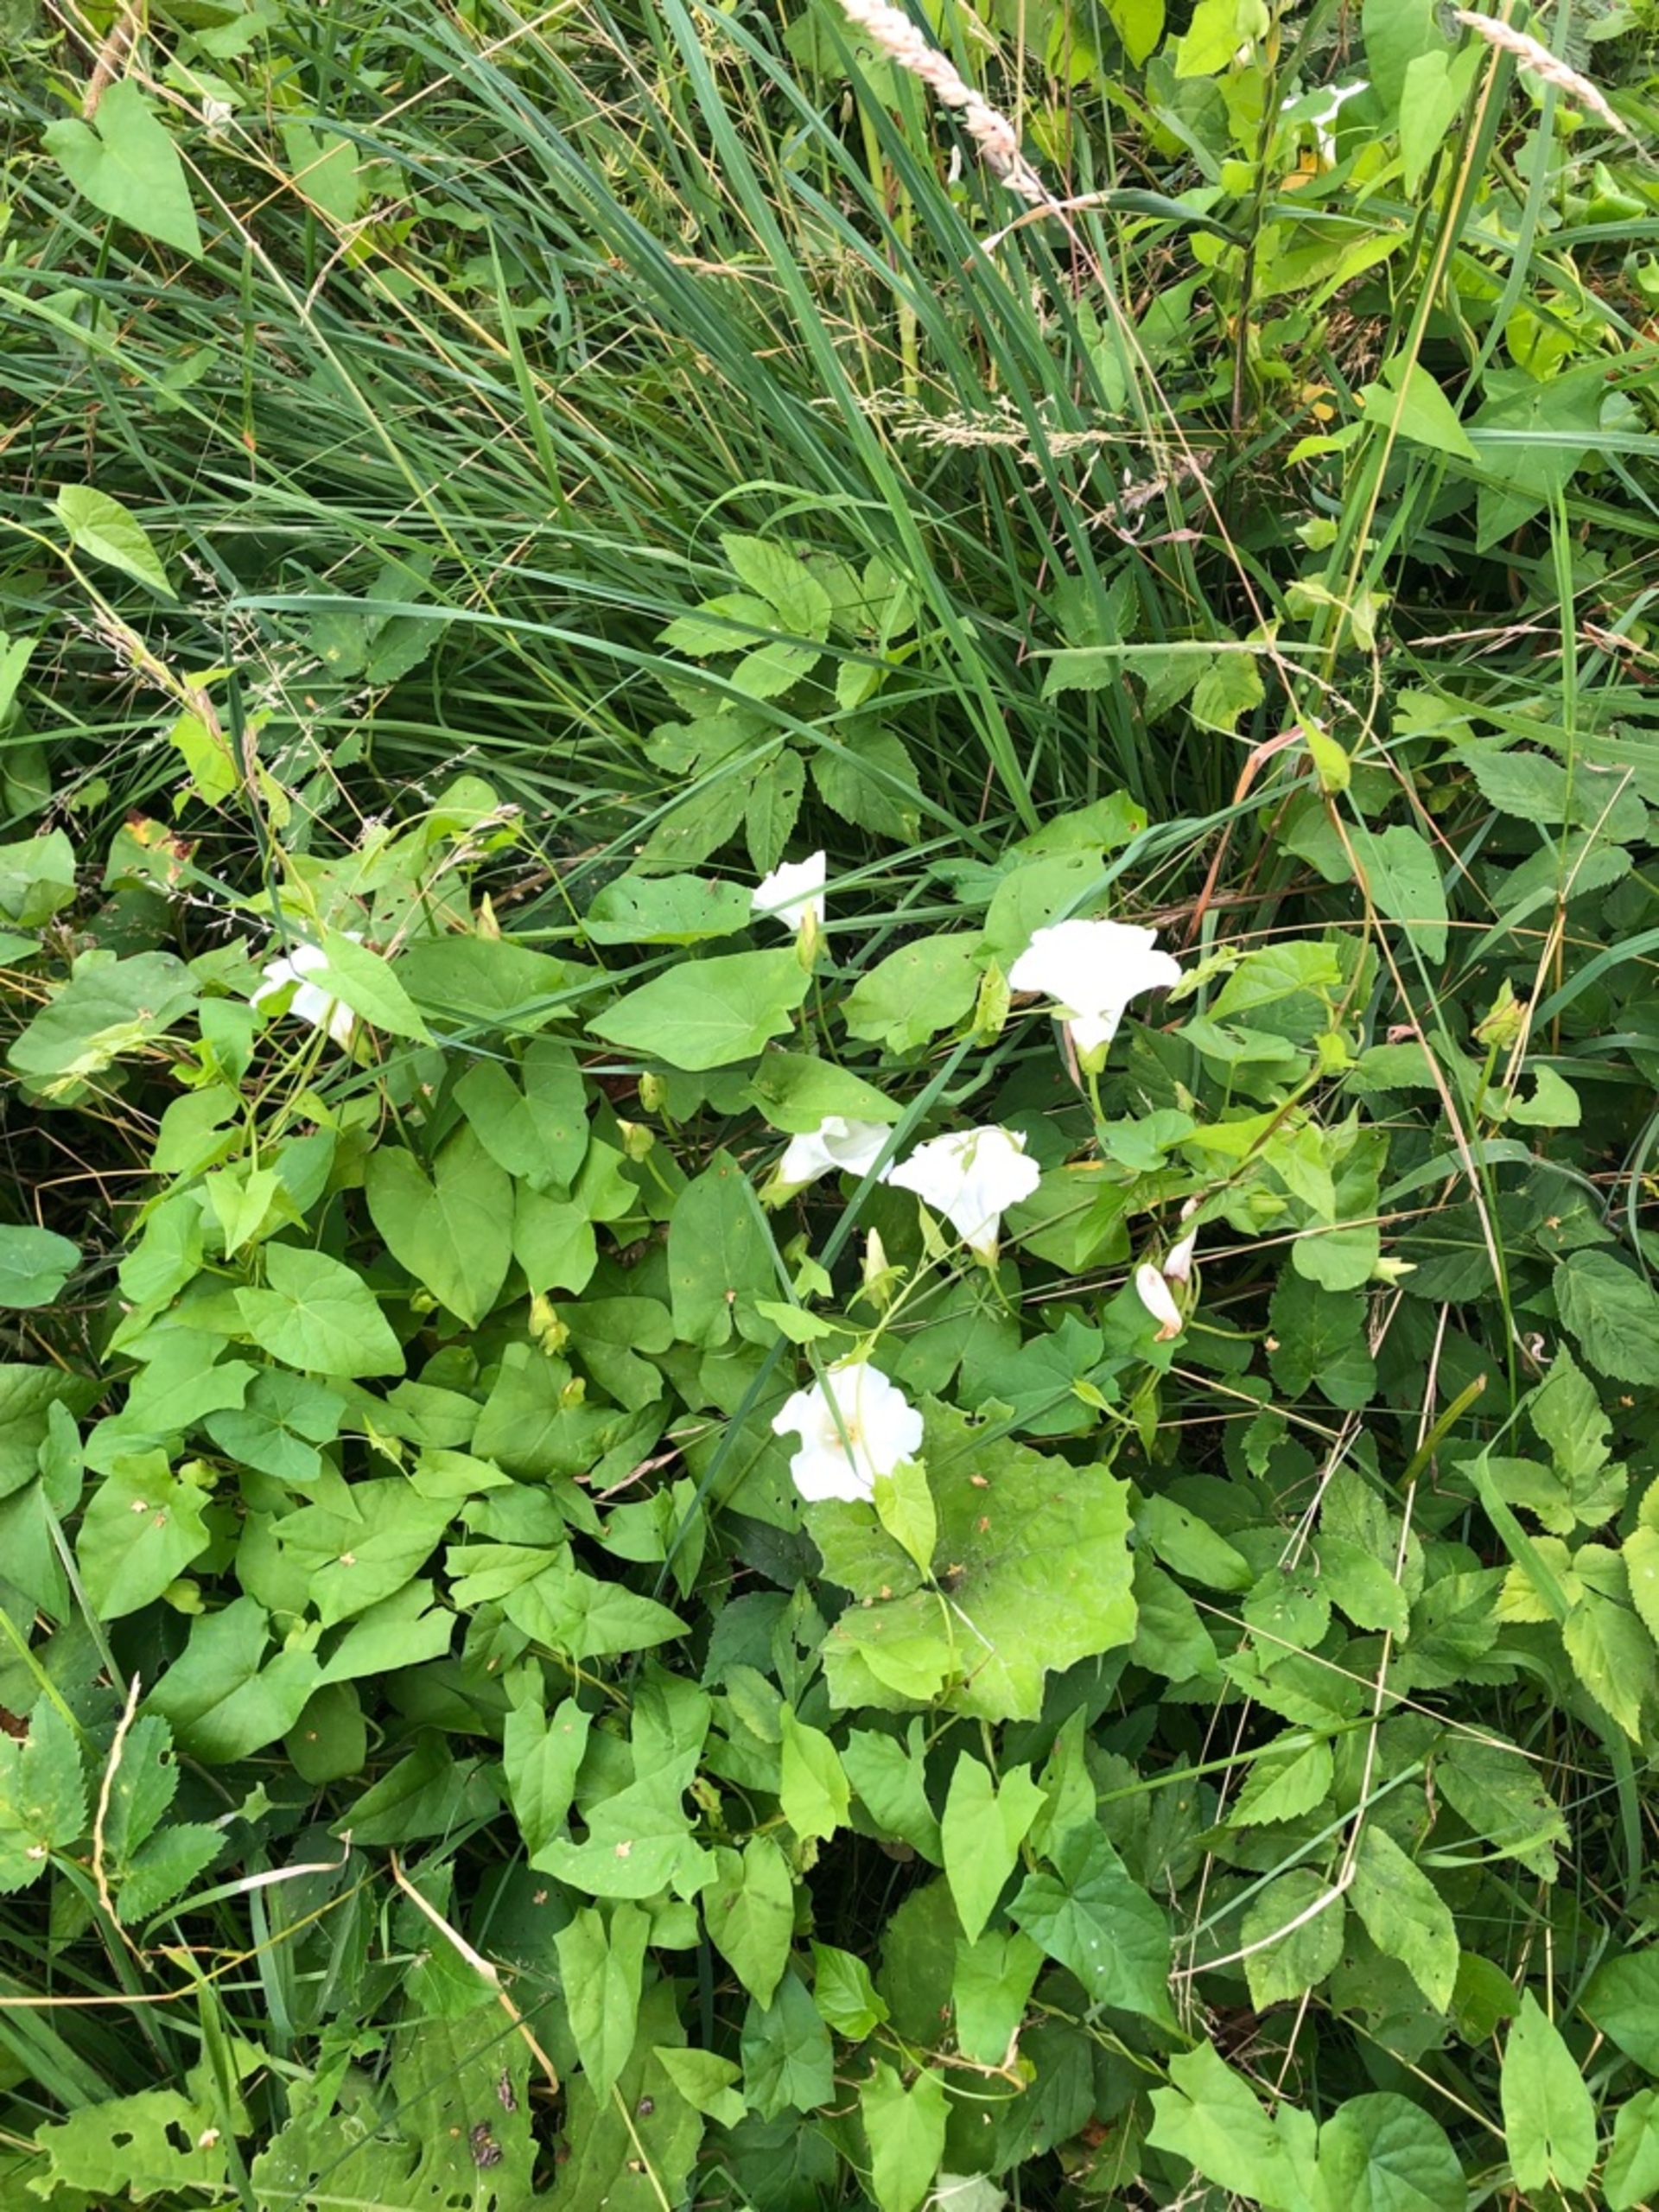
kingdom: Plantae
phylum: Tracheophyta
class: Magnoliopsida
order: Solanales
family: Convolvulaceae
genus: Calystegia
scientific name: Calystegia sepium
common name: Gærde-snerle
